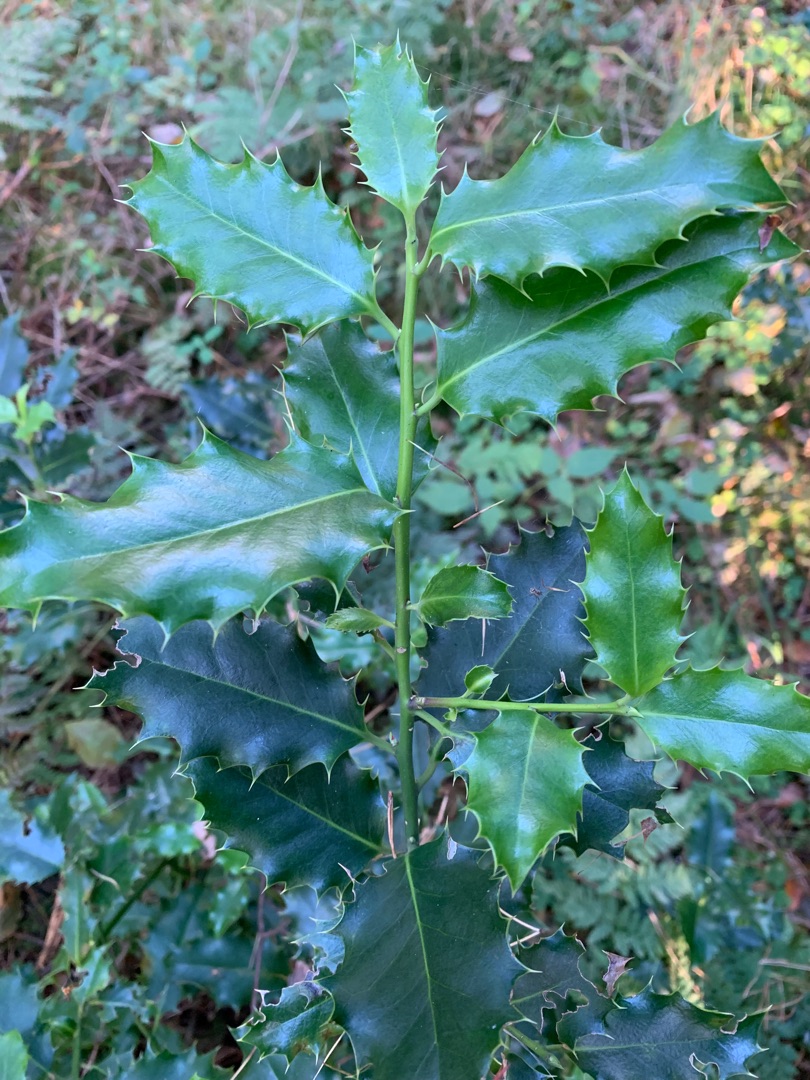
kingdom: Plantae
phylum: Tracheophyta
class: Magnoliopsida
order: Aquifoliales
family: Aquifoliaceae
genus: Ilex
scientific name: Ilex aquifolium
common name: Kristtorn
